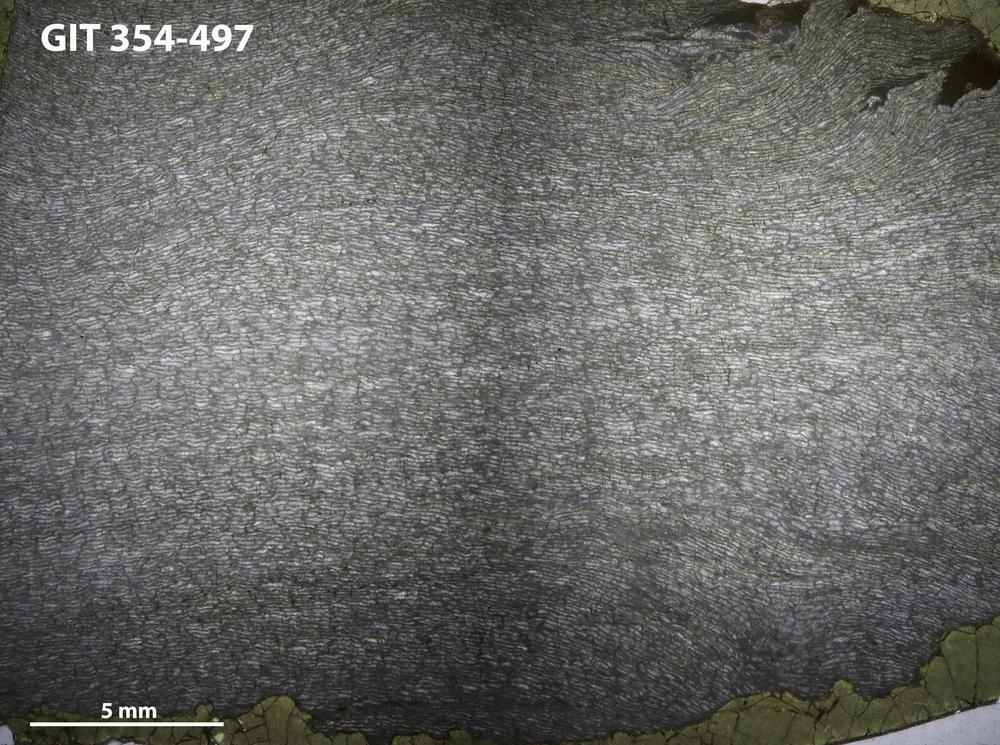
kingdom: Animalia
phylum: Porifera
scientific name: Porifera
